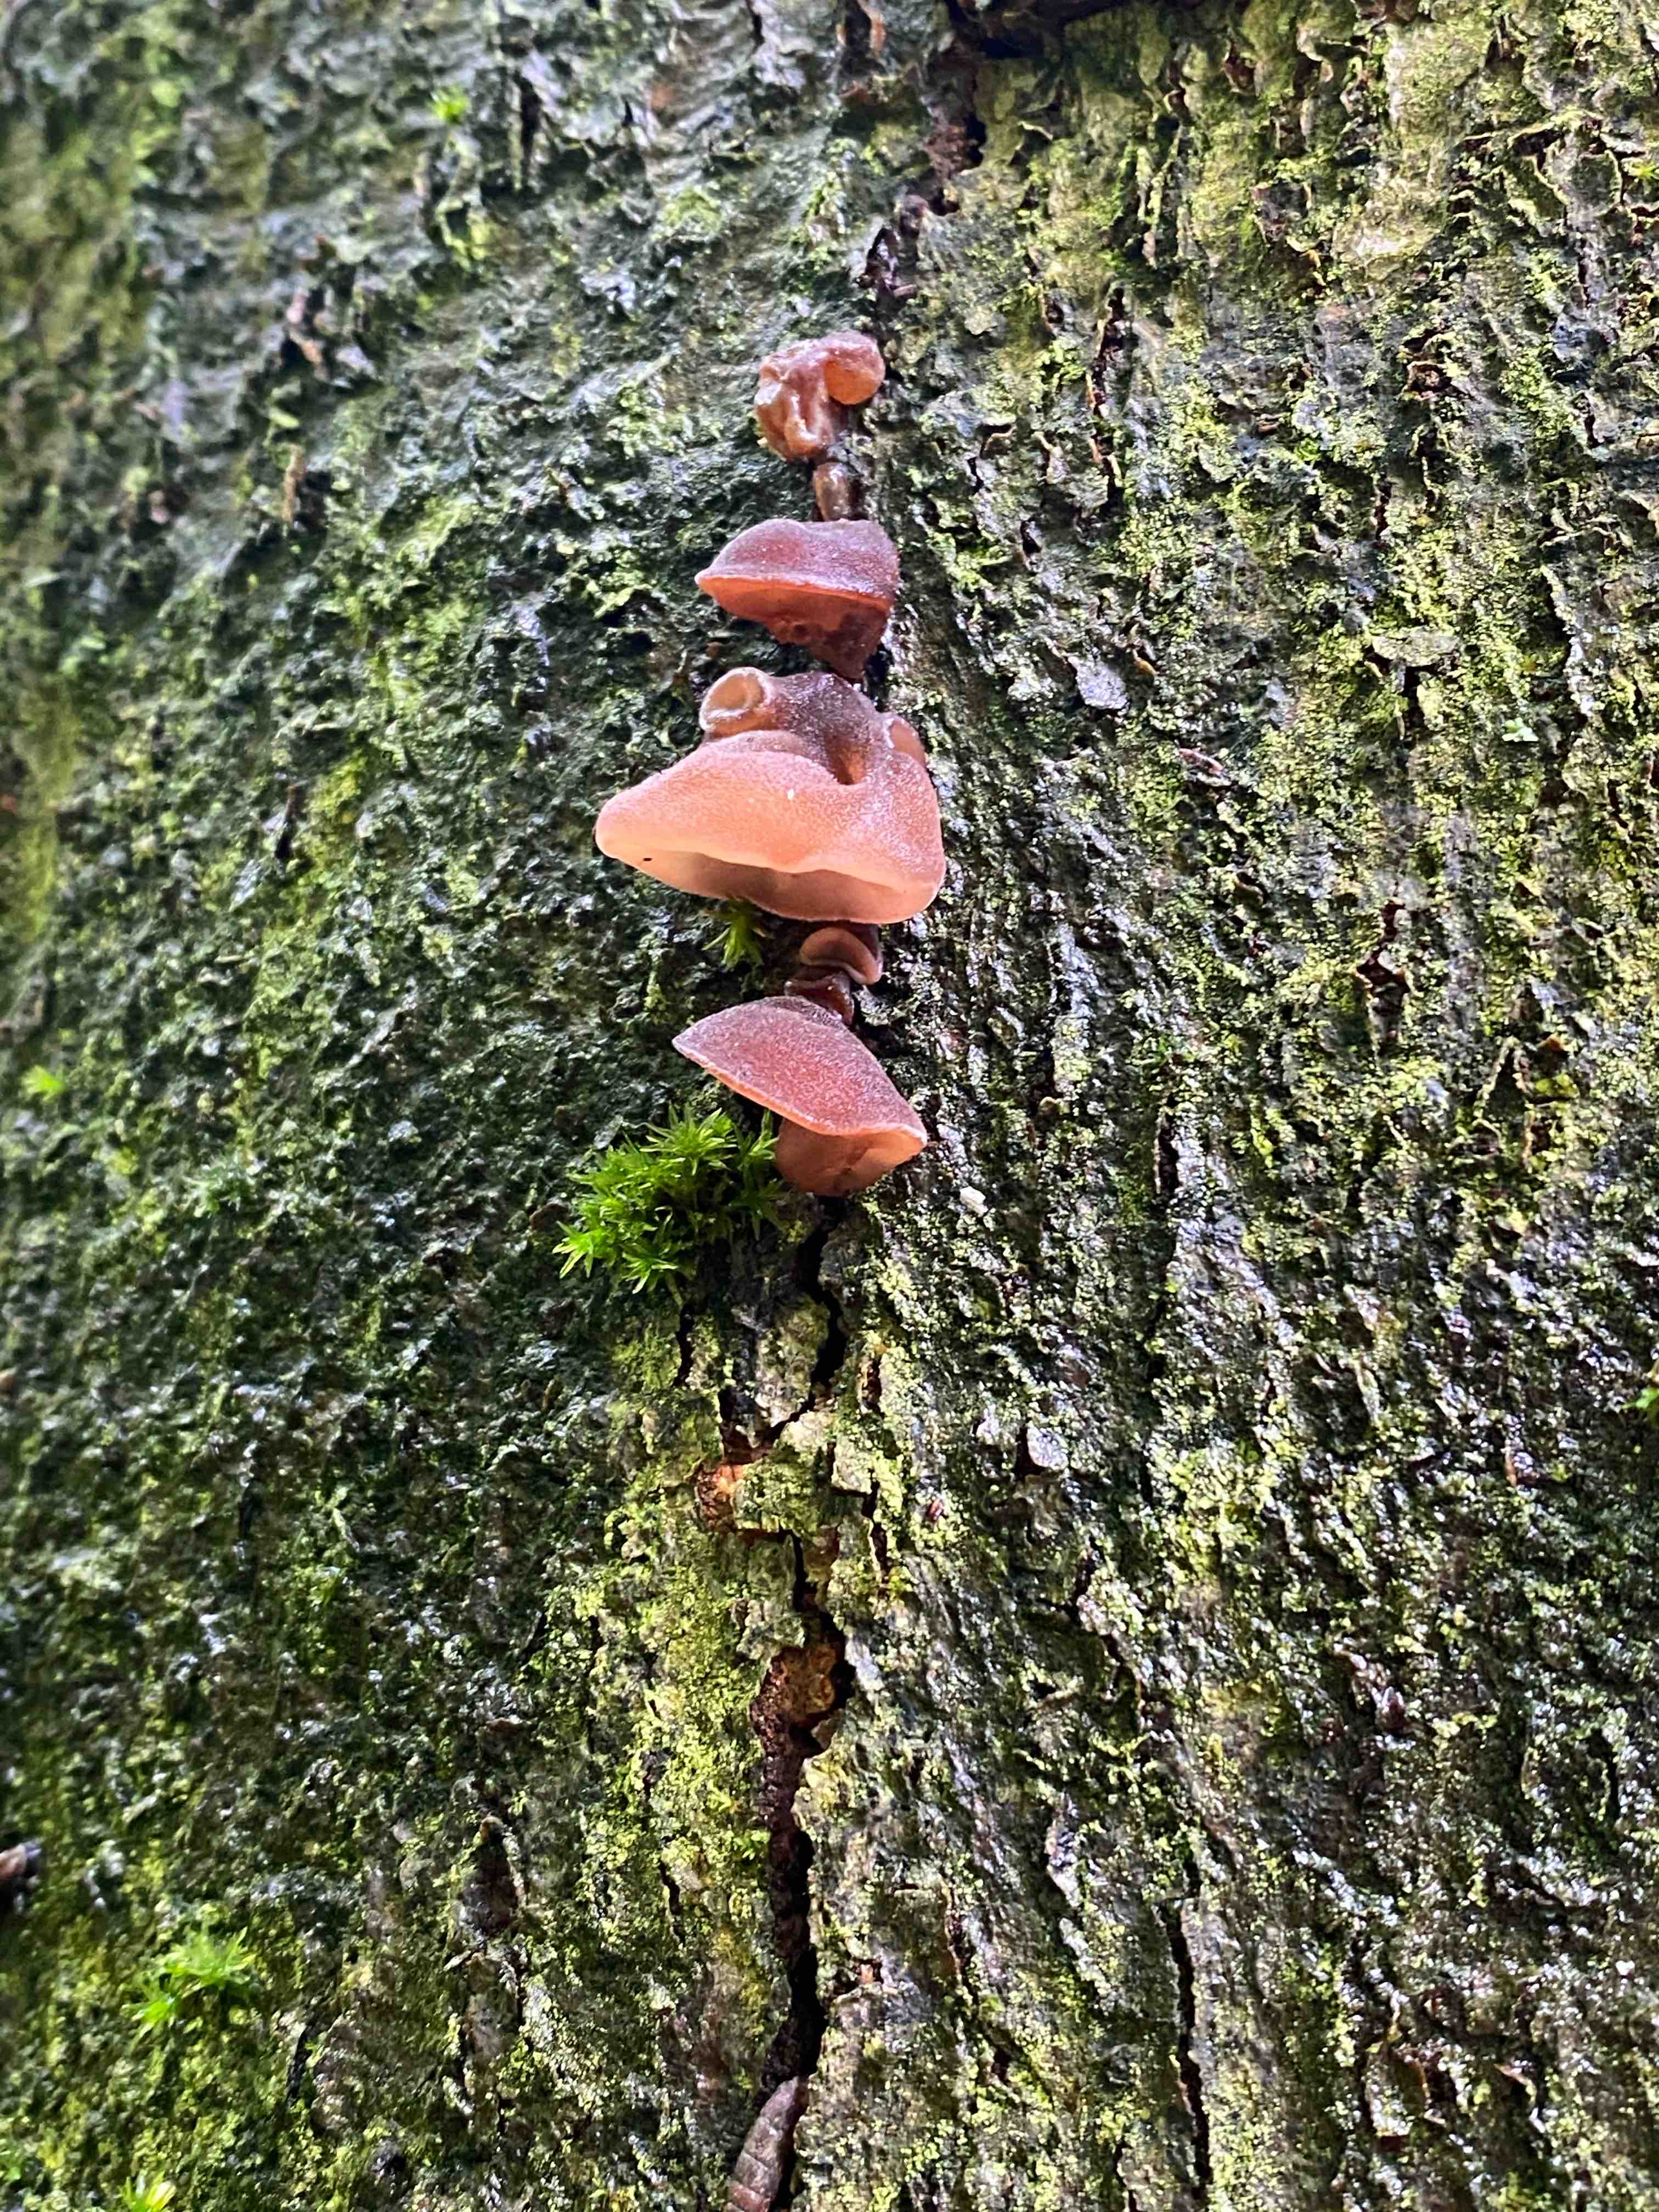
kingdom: Fungi
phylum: Basidiomycota
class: Agaricomycetes
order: Auriculariales
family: Auriculariaceae
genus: Auricularia
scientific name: Auricularia auricula-judae
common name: almindelig judasøre
